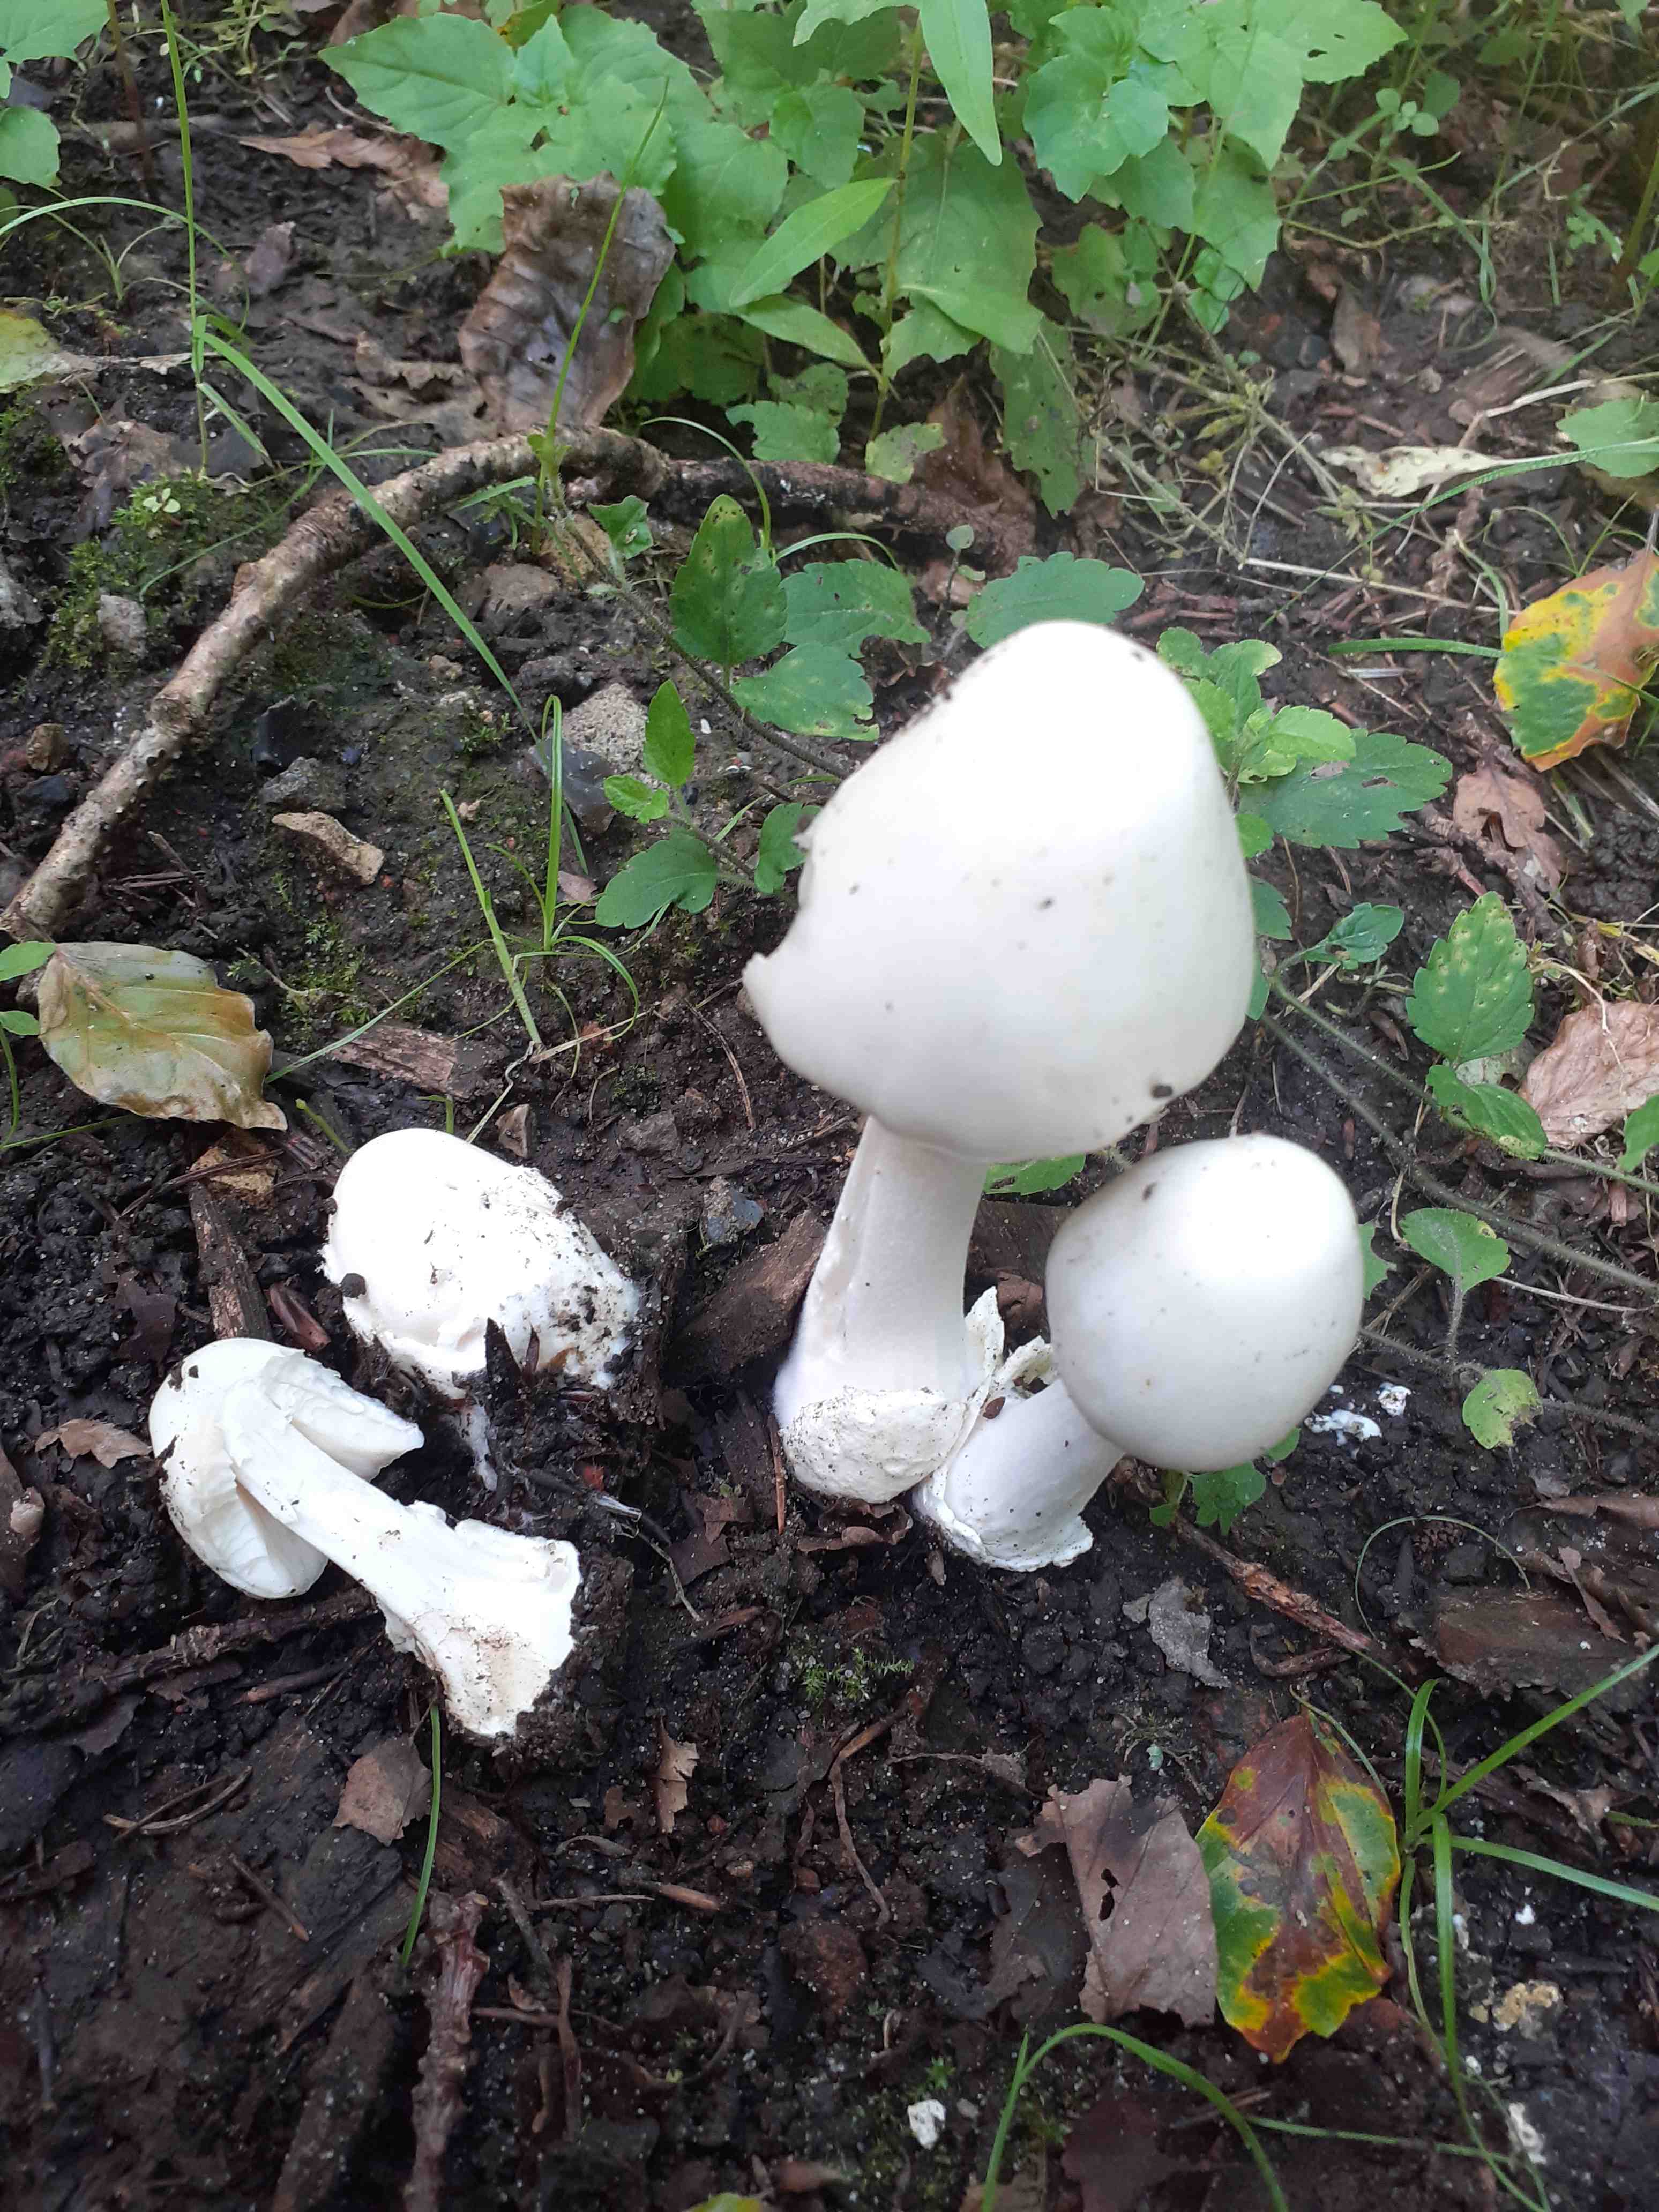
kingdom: Fungi
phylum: Basidiomycota
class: Agaricomycetes
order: Agaricales
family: Pluteaceae
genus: Volvopluteus
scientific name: Volvopluteus gloiocephalus
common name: høj posesvamp
